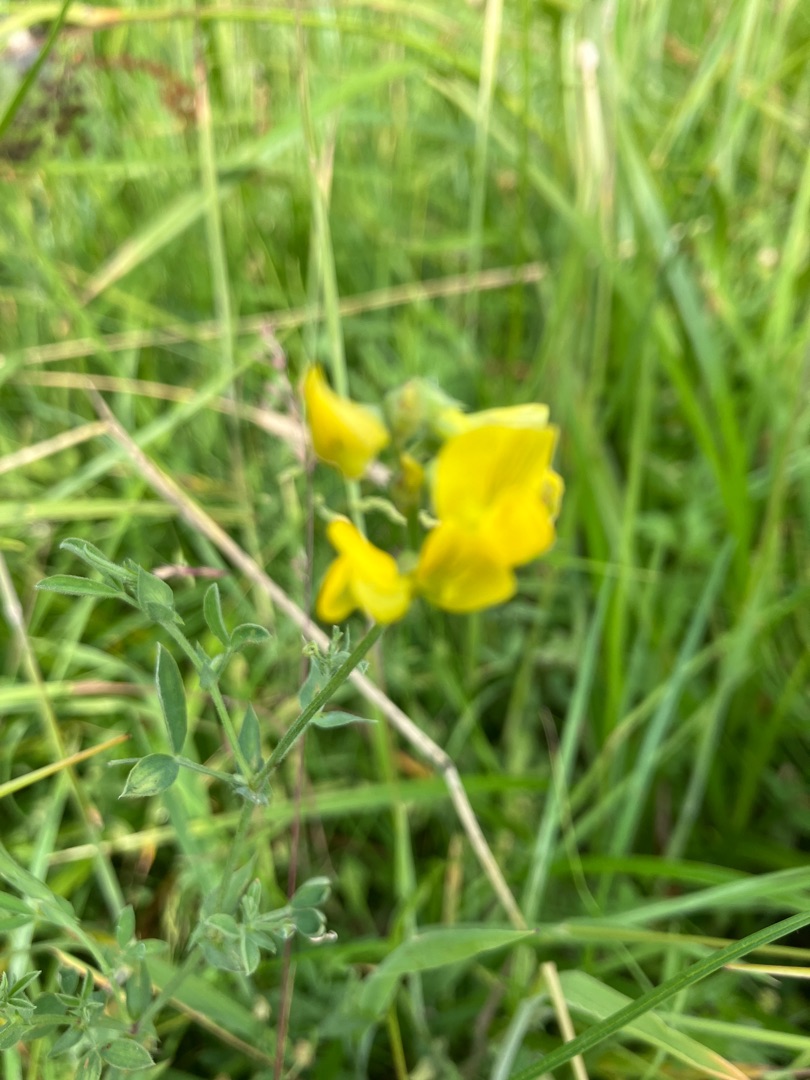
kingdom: Plantae
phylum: Tracheophyta
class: Magnoliopsida
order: Fabales
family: Fabaceae
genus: Lathyrus
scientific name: Lathyrus pratensis
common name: Gul fladbælg
